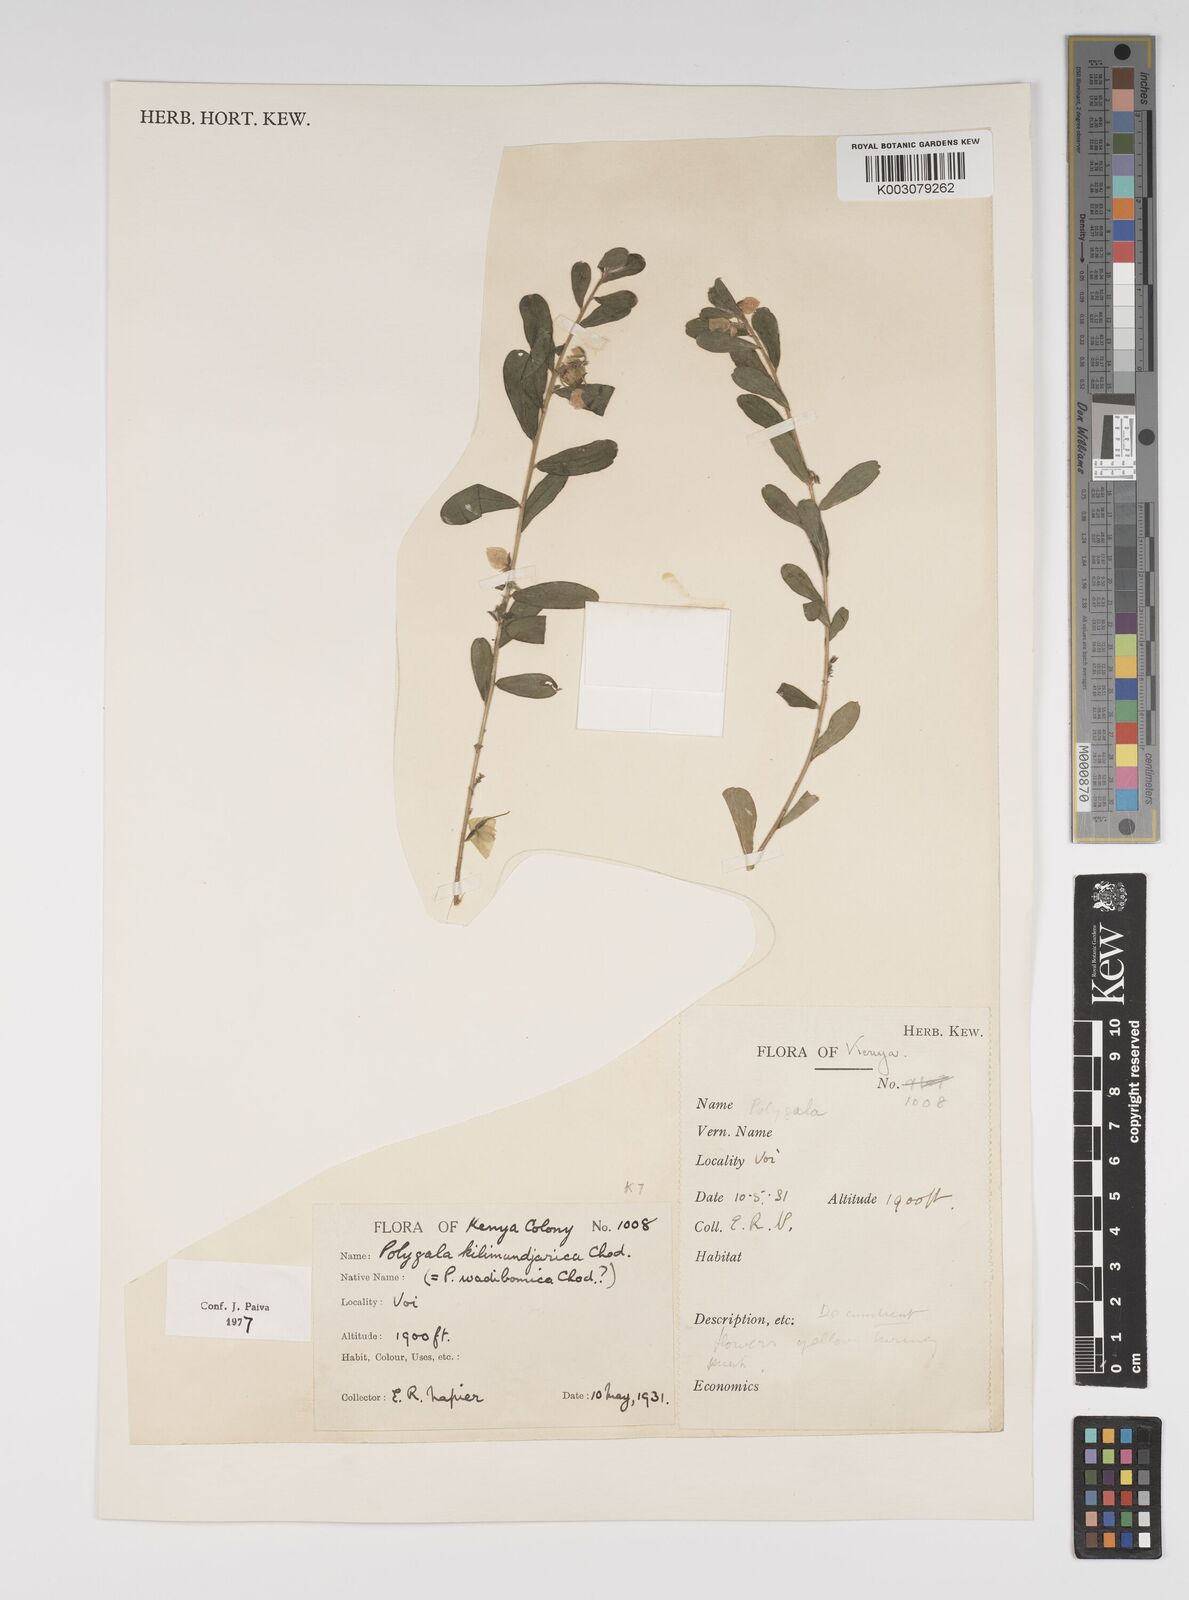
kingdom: Plantae
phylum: Tracheophyta
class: Magnoliopsida
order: Fabales
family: Polygalaceae
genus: Polygala
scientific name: Polygala kilimandjarica
